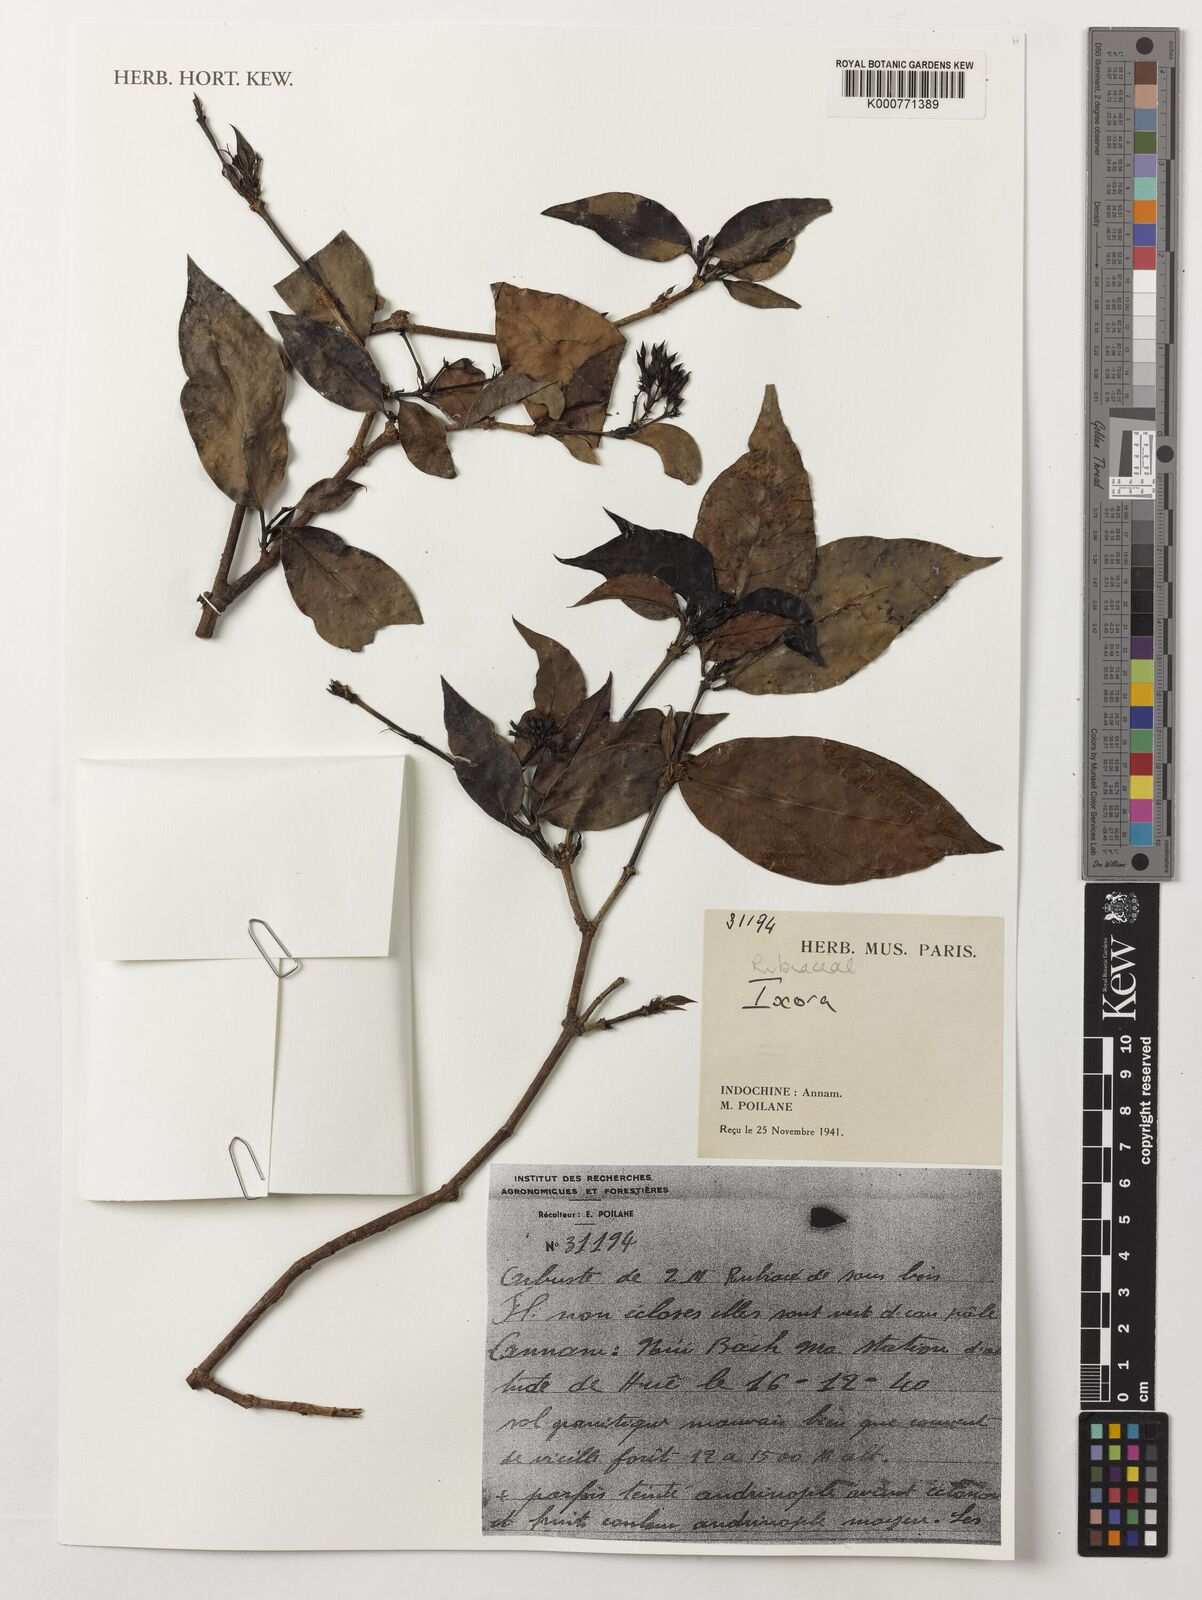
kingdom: Plantae
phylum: Tracheophyta
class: Magnoliopsida
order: Gentianales
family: Rubiaceae
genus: Ixora
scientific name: Ixora
